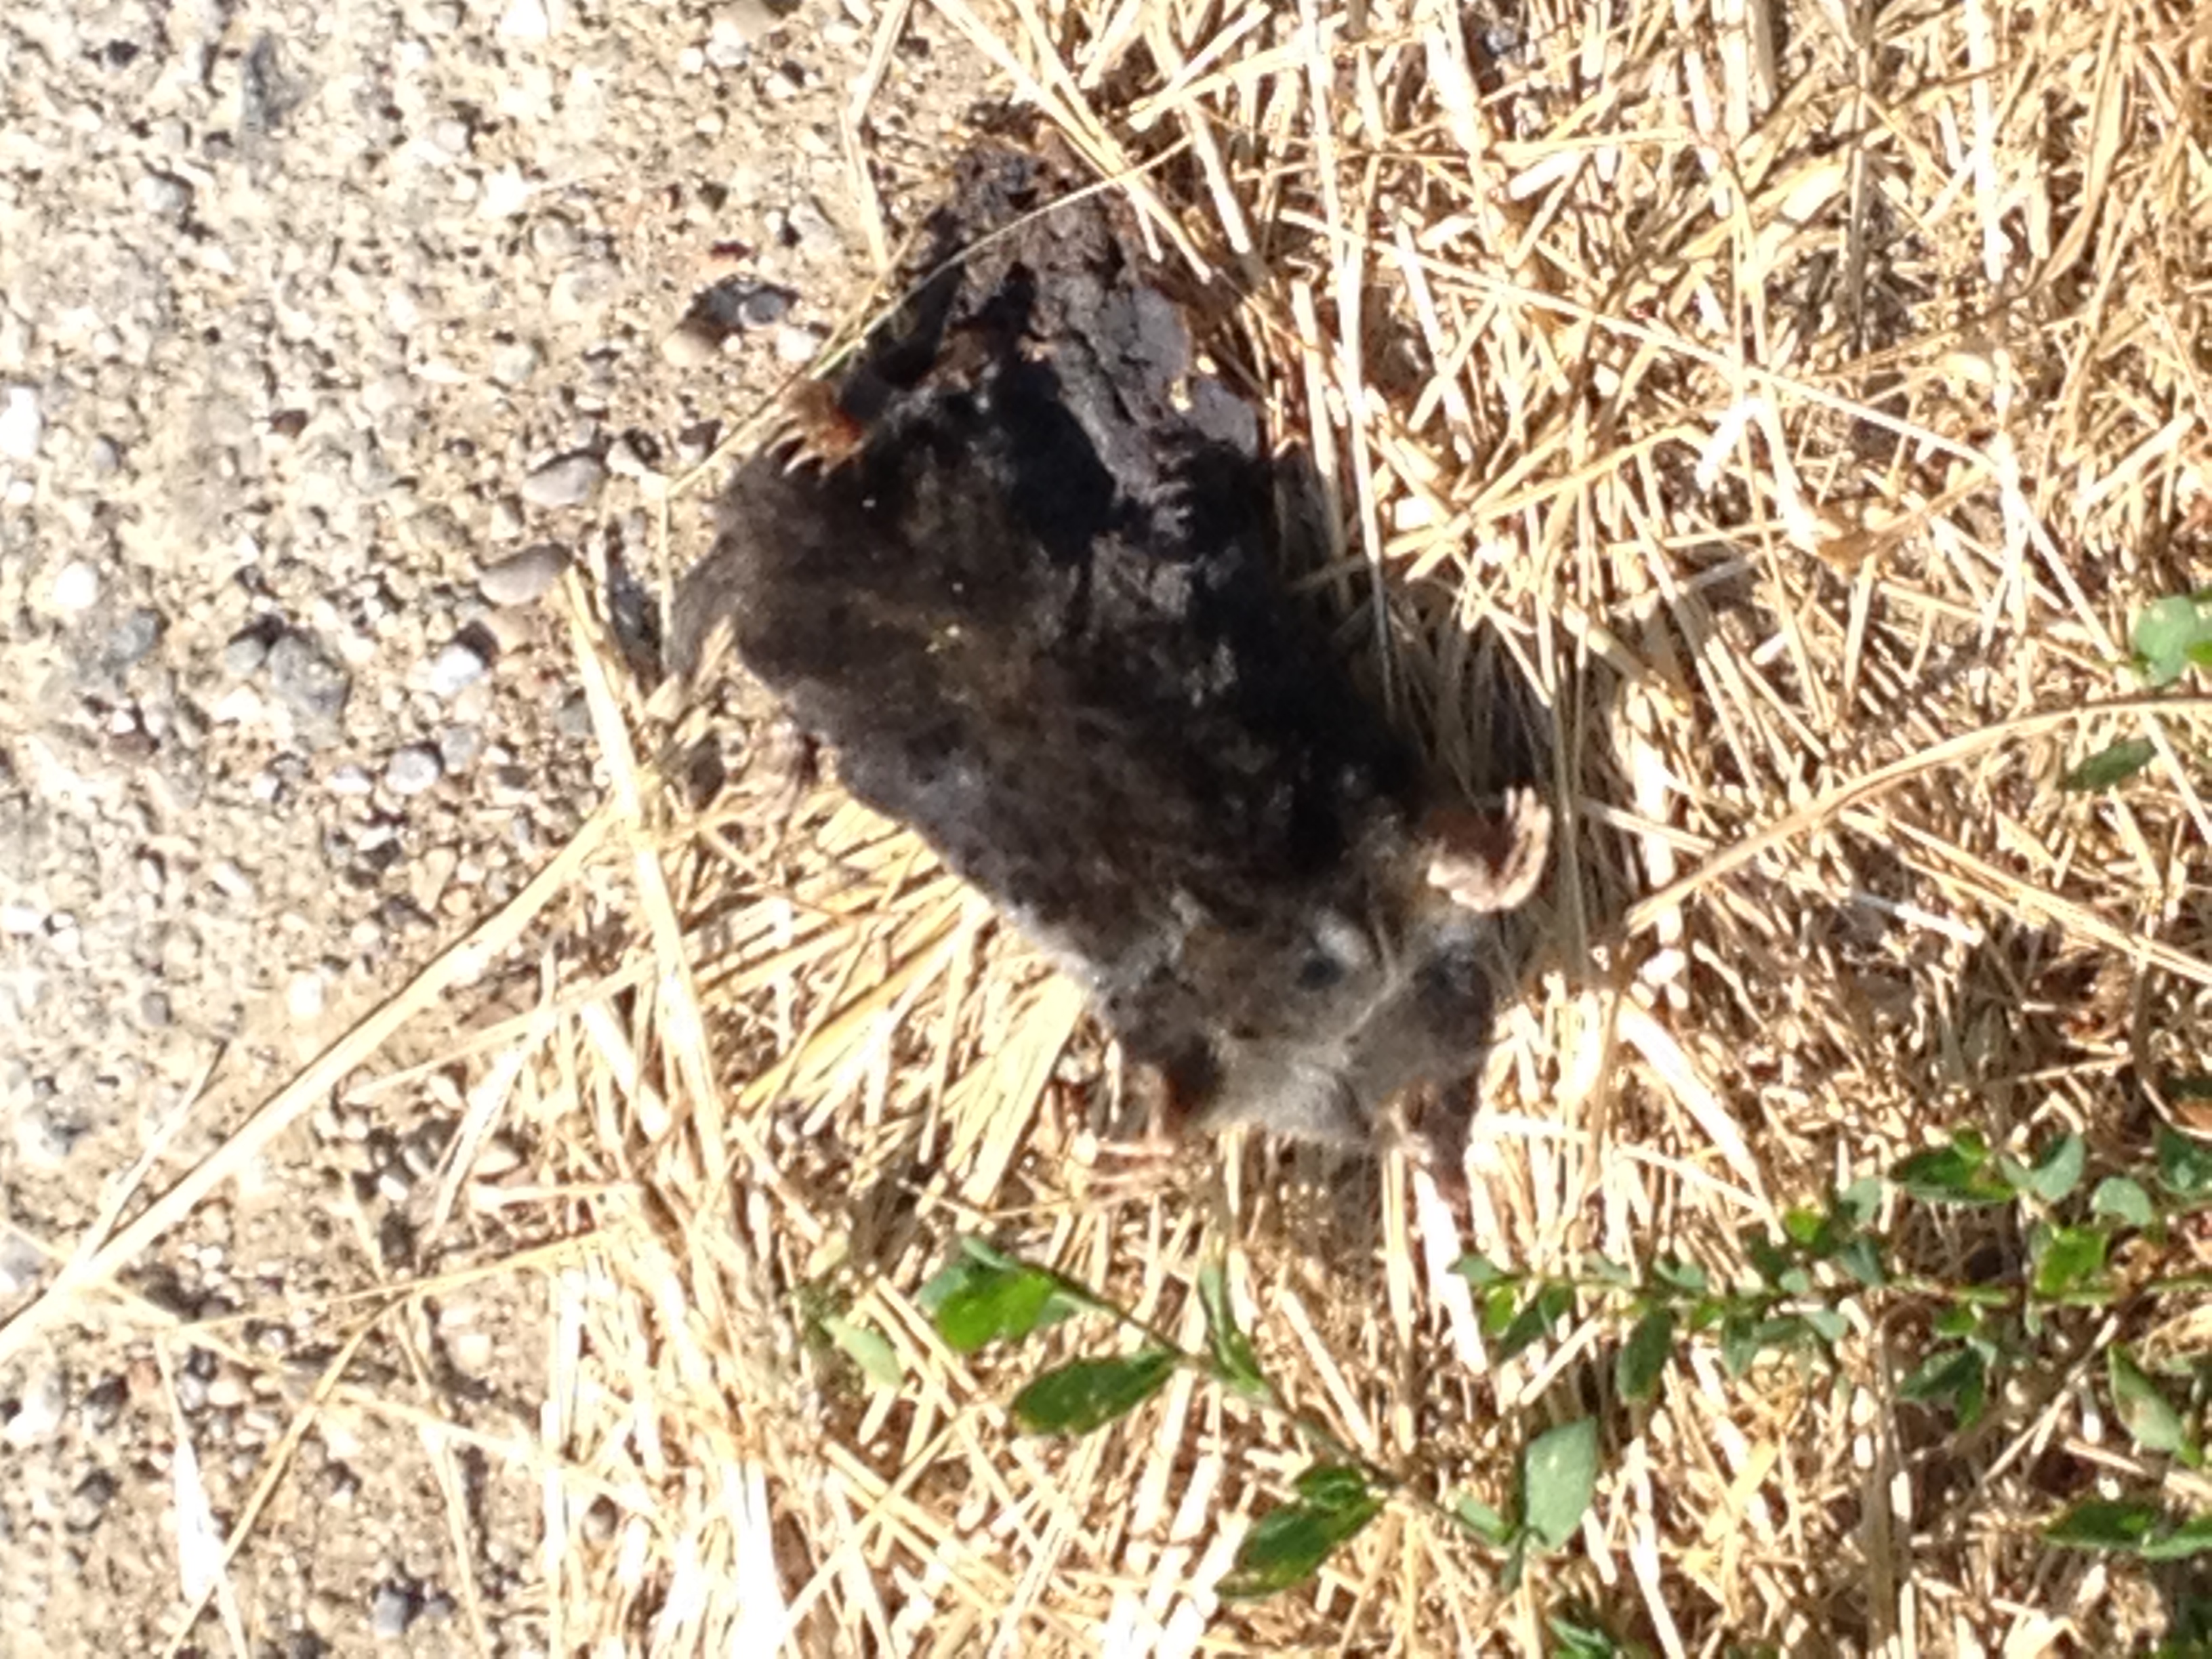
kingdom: Animalia
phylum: Chordata
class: Mammalia
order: Soricomorpha
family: Talpidae
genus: Talpa
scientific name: Talpa europaea
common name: European mole
